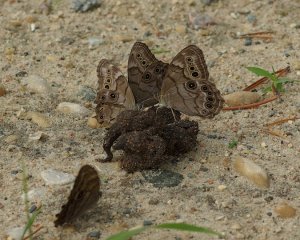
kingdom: Animalia
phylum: Arthropoda
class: Insecta
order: Lepidoptera
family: Nymphalidae
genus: Lethe
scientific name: Lethe anthedon
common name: Northern Pearly-Eye
